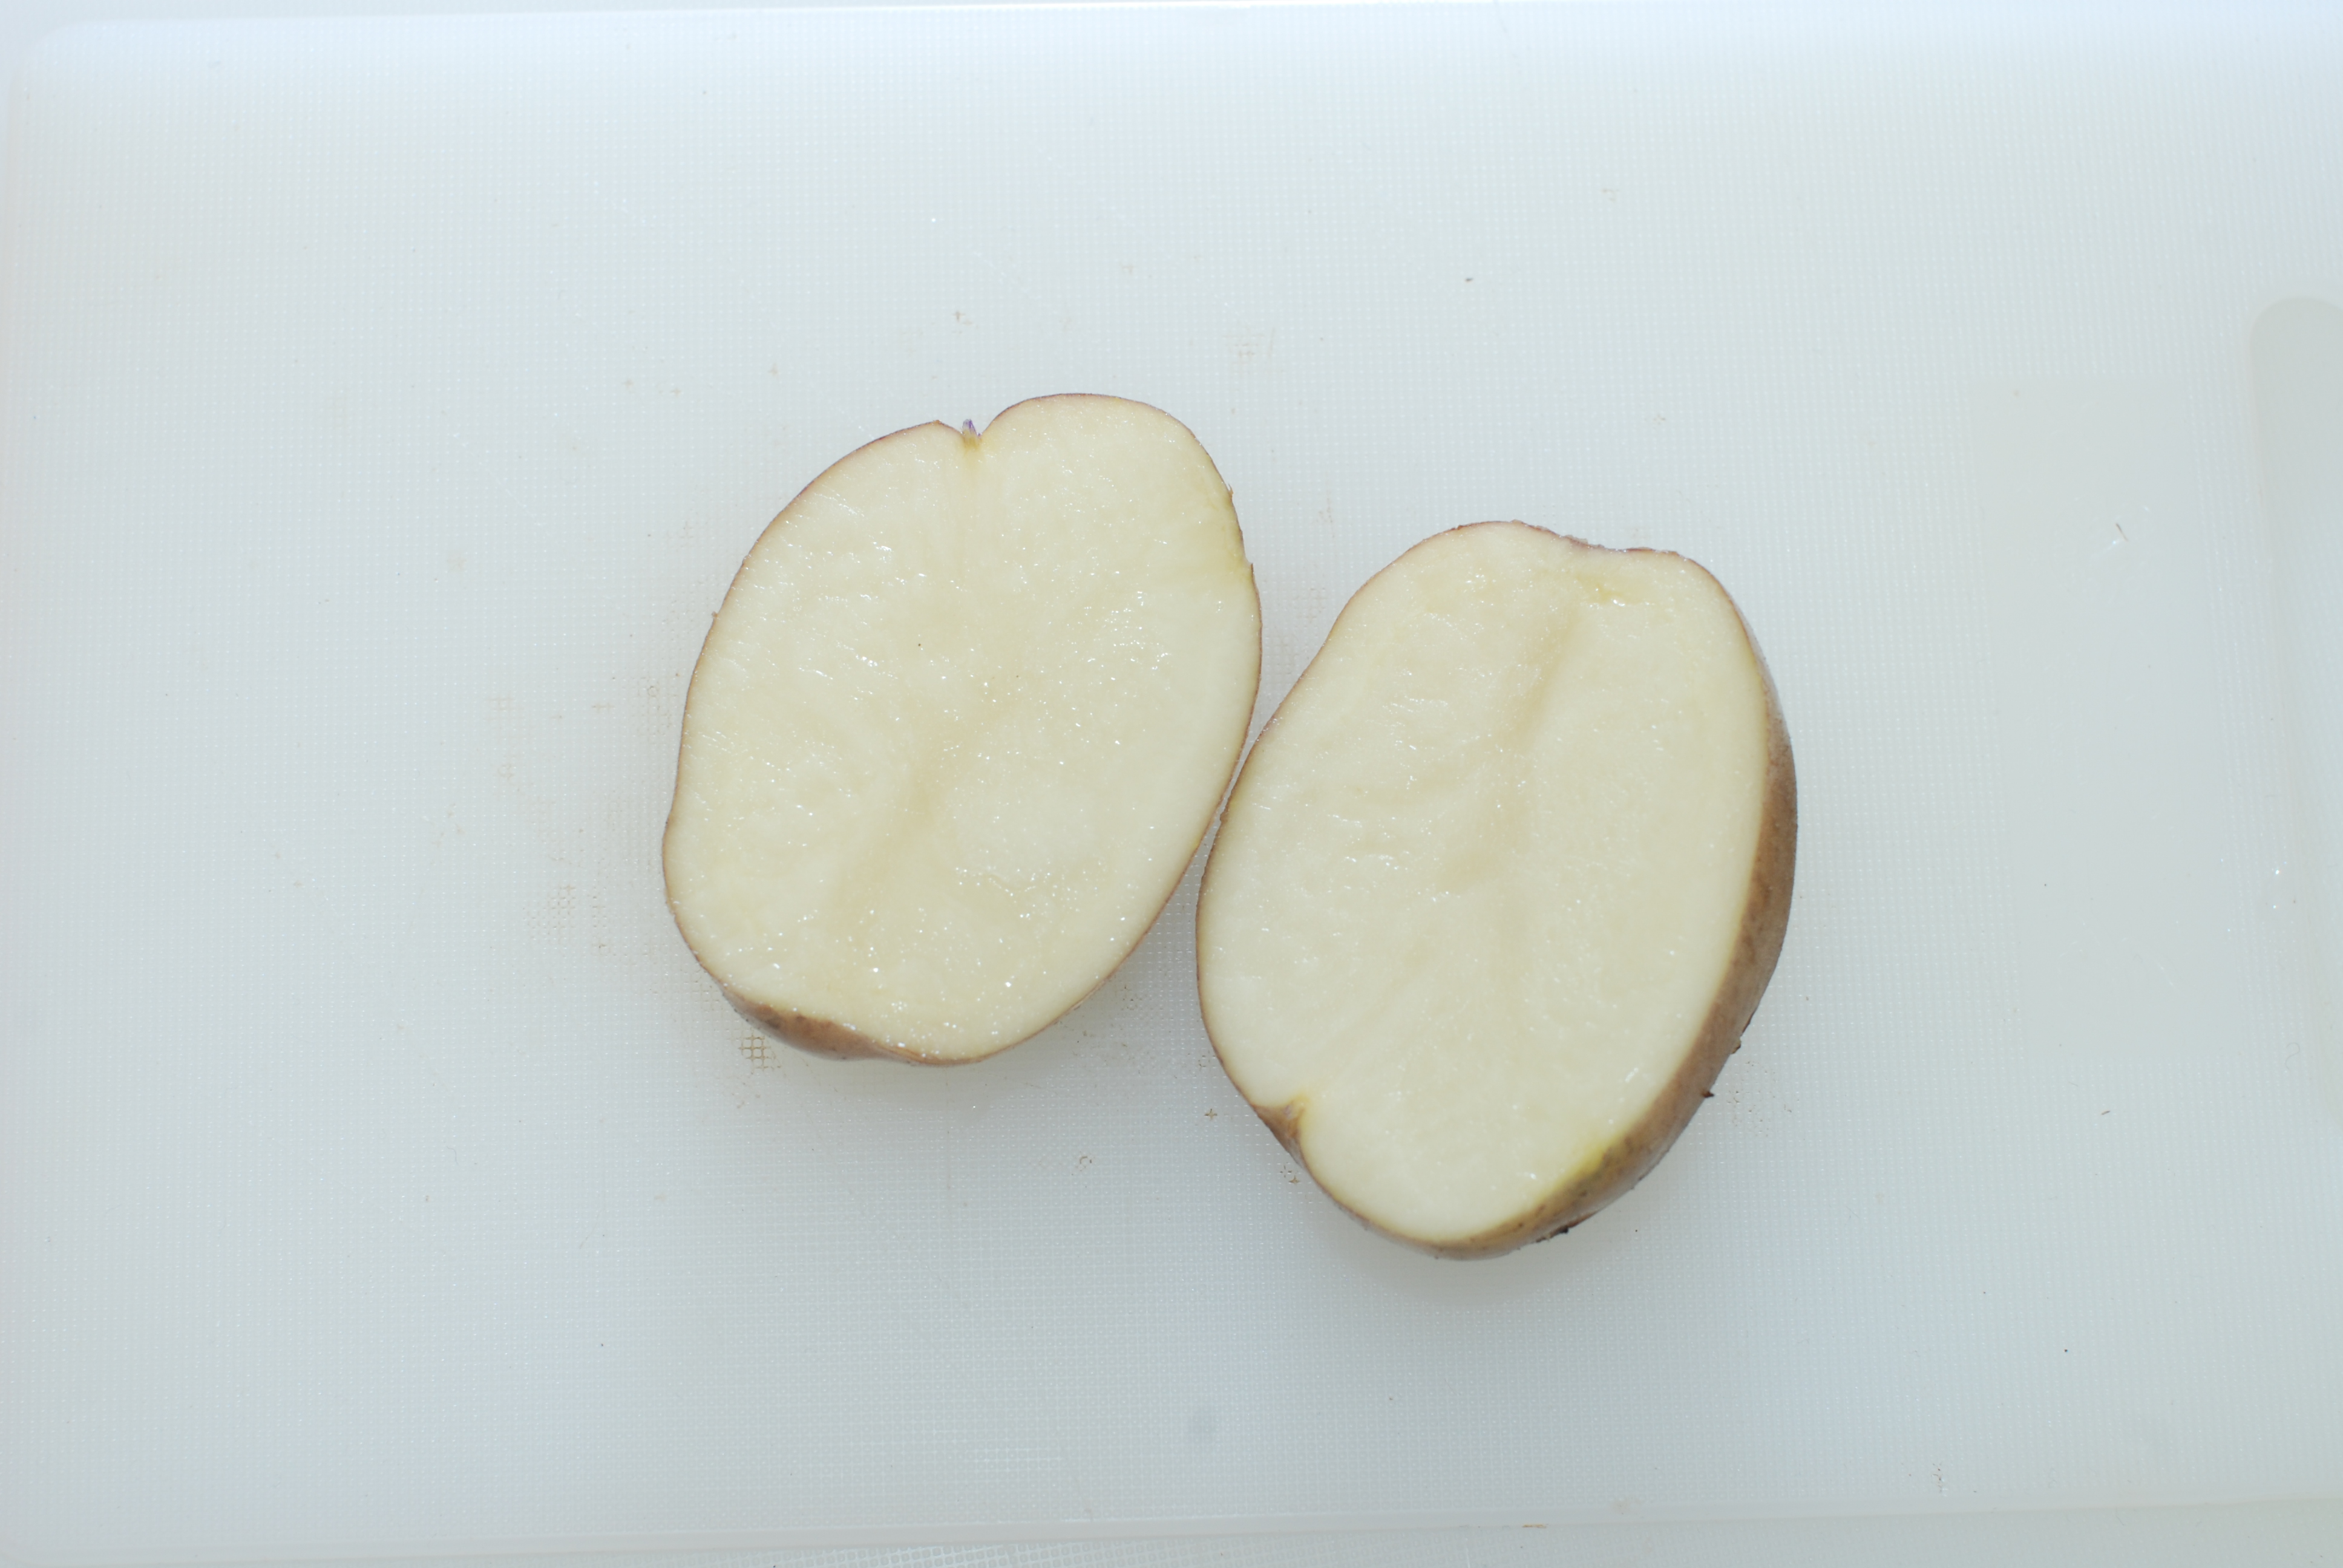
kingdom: Plantae
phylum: Tracheophyta
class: Magnoliopsida
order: Solanales
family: Solanaceae
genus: Solanum
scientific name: Solanum tuberosum
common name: Potato
